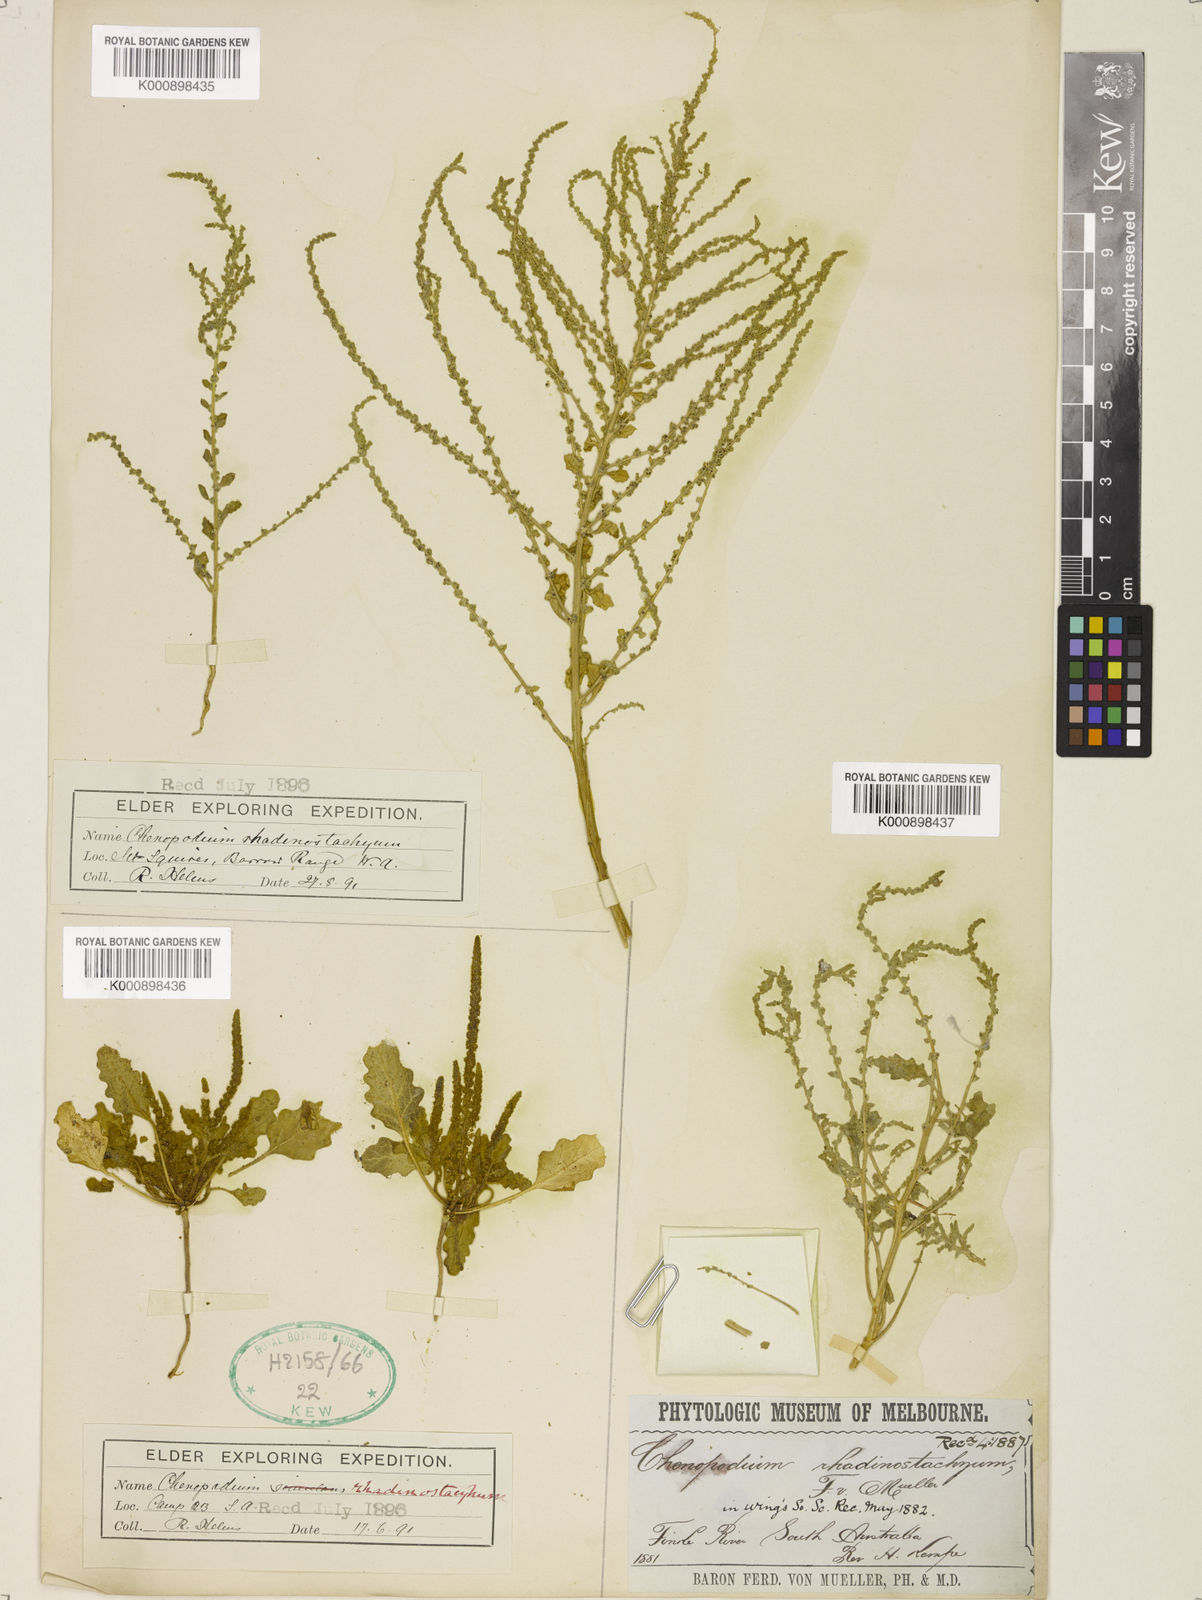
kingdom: Plantae
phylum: Tracheophyta
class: Magnoliopsida
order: Caryophyllales
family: Amaranthaceae
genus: Dysphania
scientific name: Dysphania rhadinostachya
